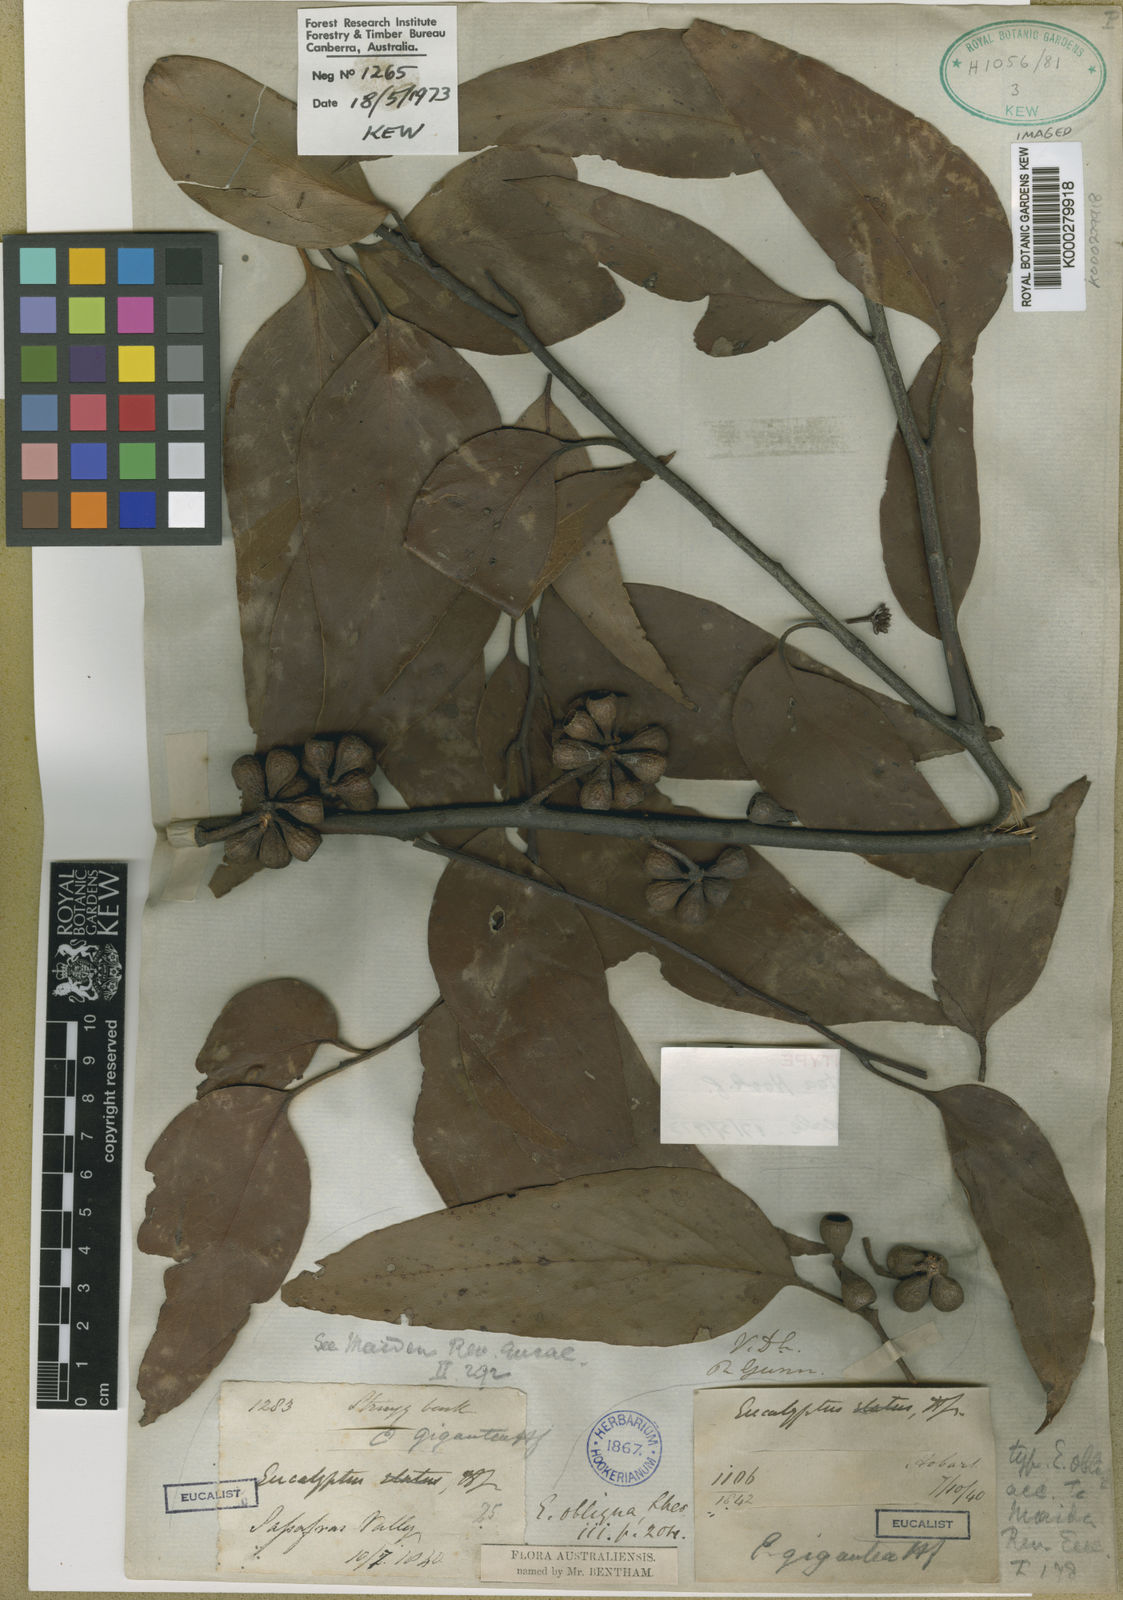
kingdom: Plantae
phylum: Tracheophyta
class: Magnoliopsida
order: Myrtales
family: Myrtaceae
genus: Eucalyptus
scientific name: Eucalyptus delegatensis
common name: Alpine-ash
